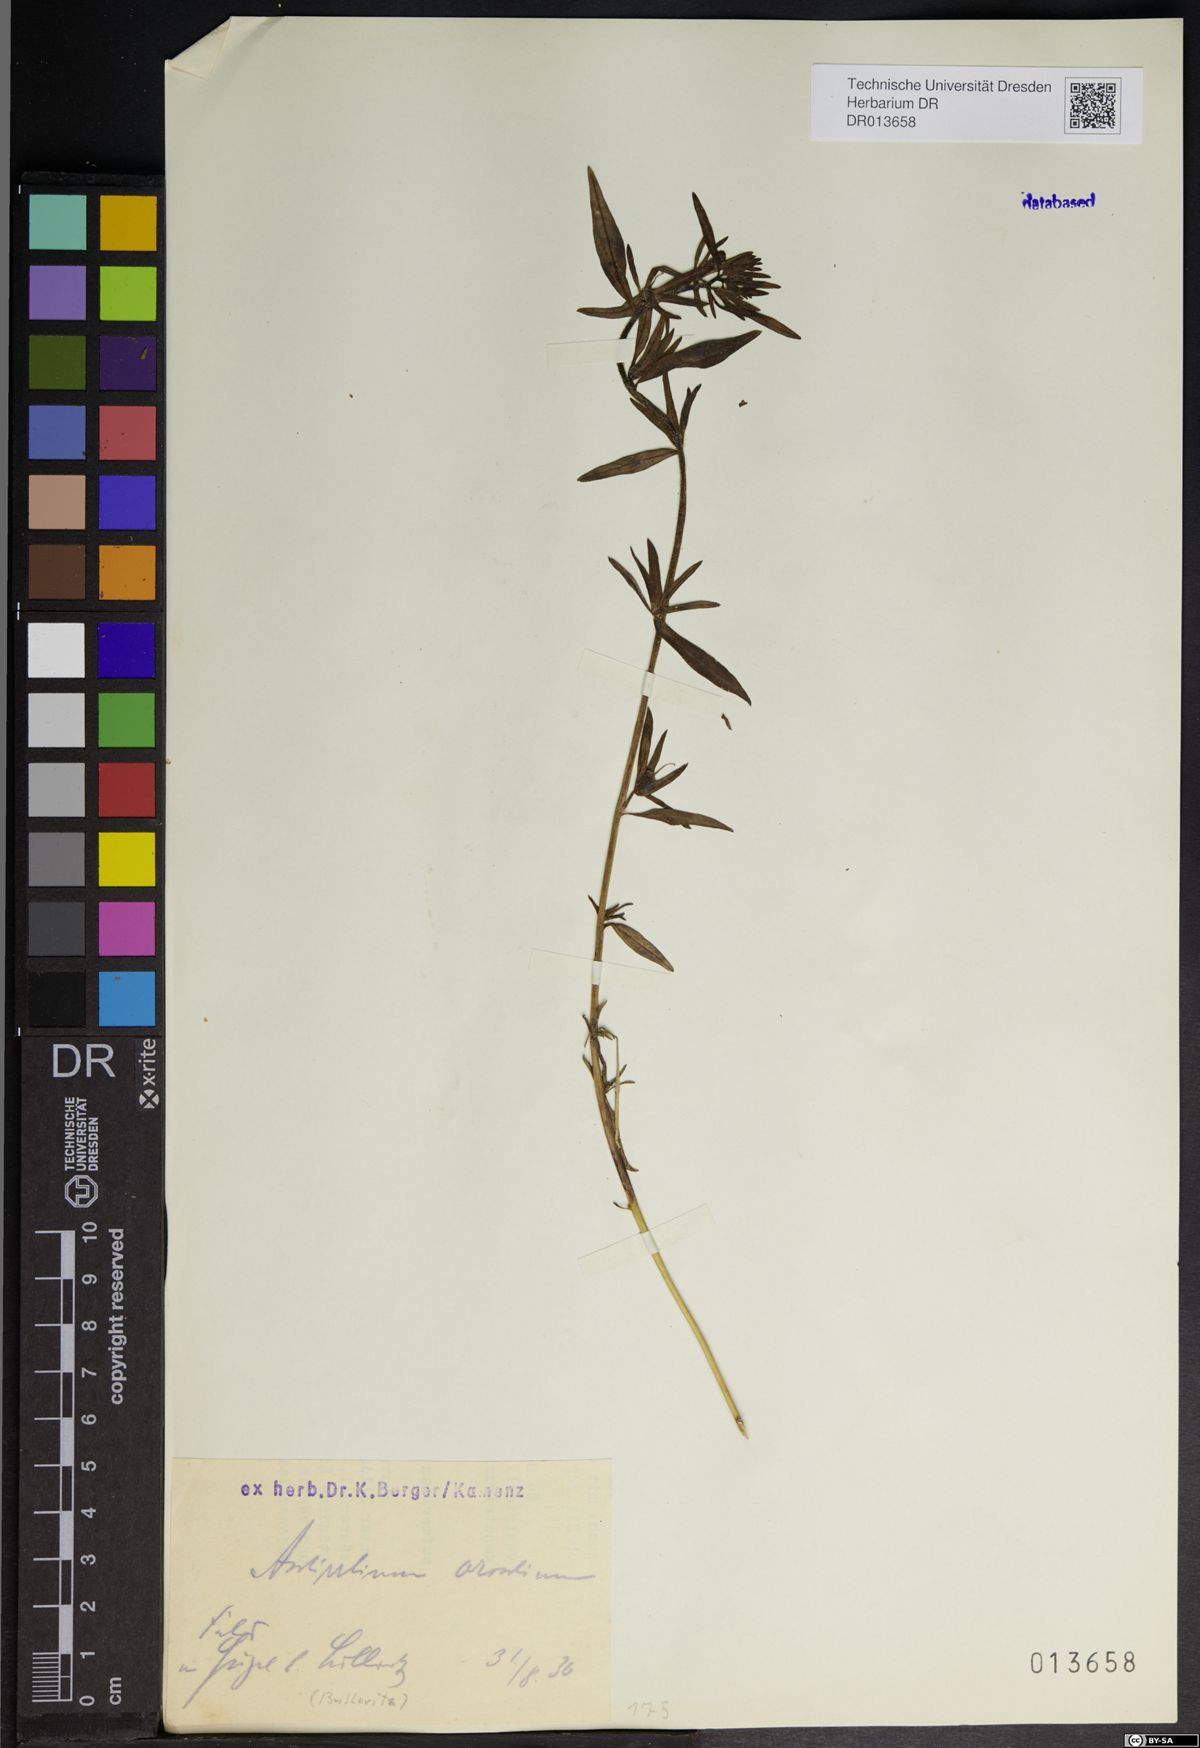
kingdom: Plantae
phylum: Tracheophyta
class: Magnoliopsida
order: Lamiales
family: Plantaginaceae
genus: Misopates
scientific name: Misopates orontium
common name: Weasel's-snout
